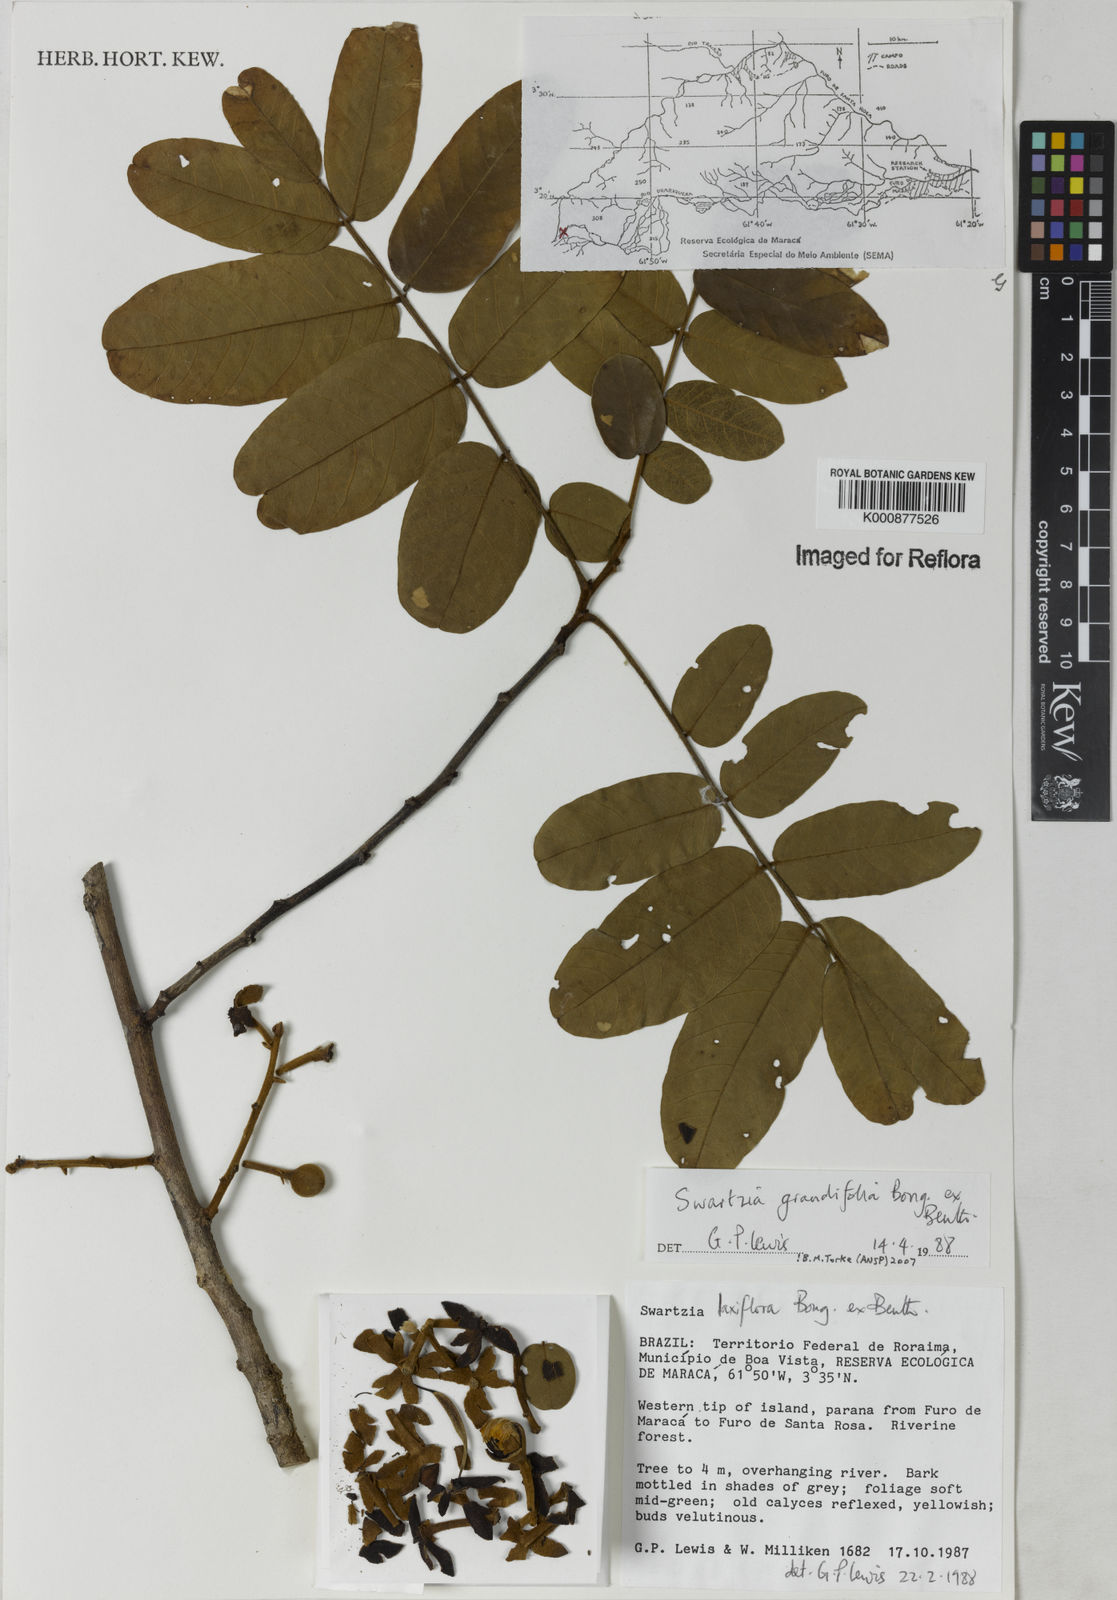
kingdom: Plantae
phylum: Tracheophyta
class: Magnoliopsida
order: Fabales
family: Fabaceae
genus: Swartzia
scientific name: Swartzia grandifolia
